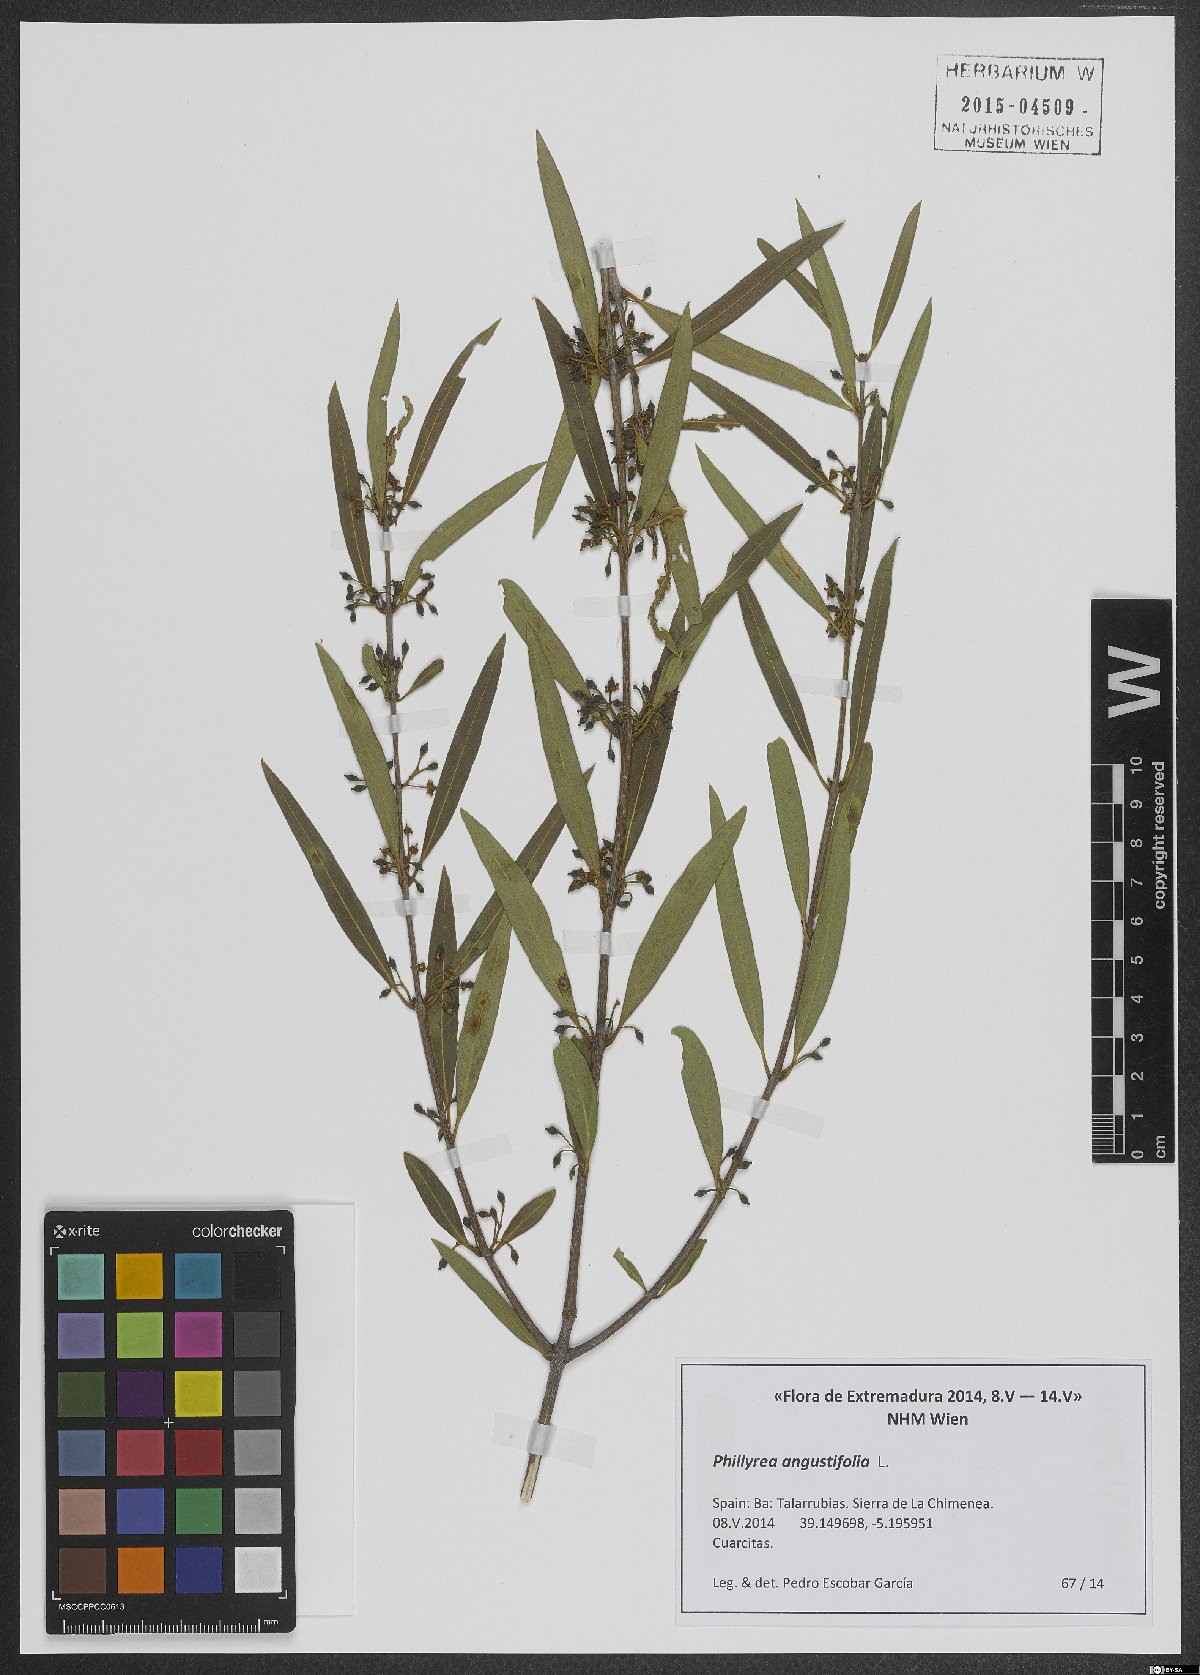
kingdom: Plantae
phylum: Tracheophyta
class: Magnoliopsida
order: Lamiales
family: Oleaceae
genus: Phillyrea
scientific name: Phillyrea angustifolia
